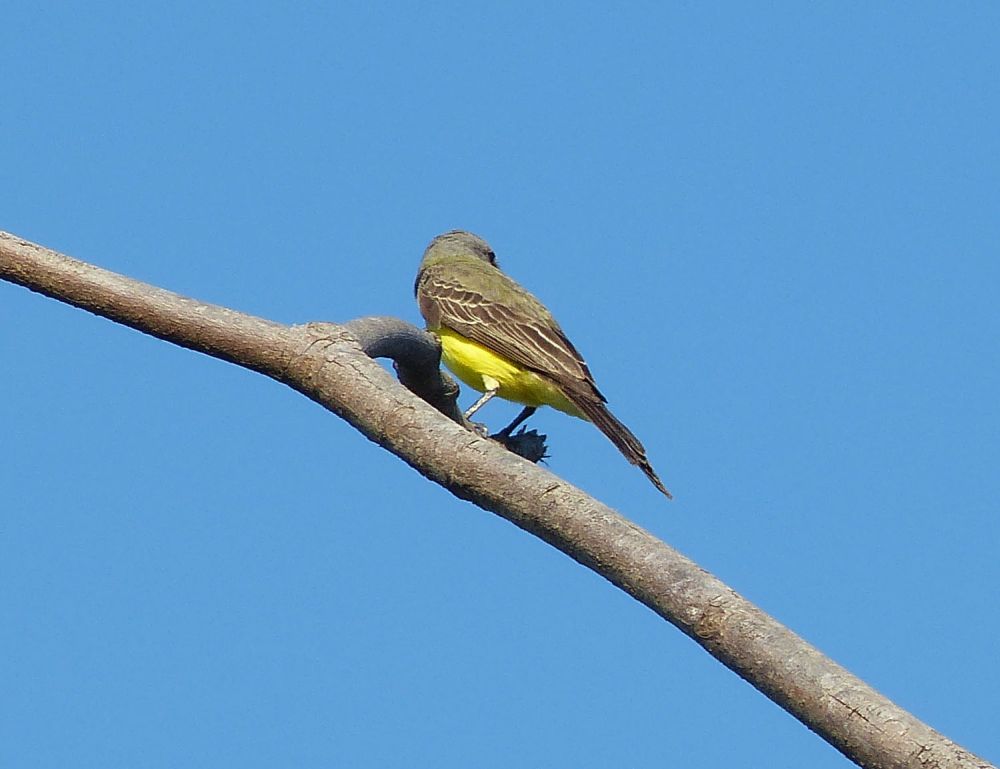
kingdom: Animalia
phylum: Chordata
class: Aves
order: Passeriformes
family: Tyrannidae
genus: Tyrannus
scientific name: Tyrannus melancholicus
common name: Tropical kingbird
